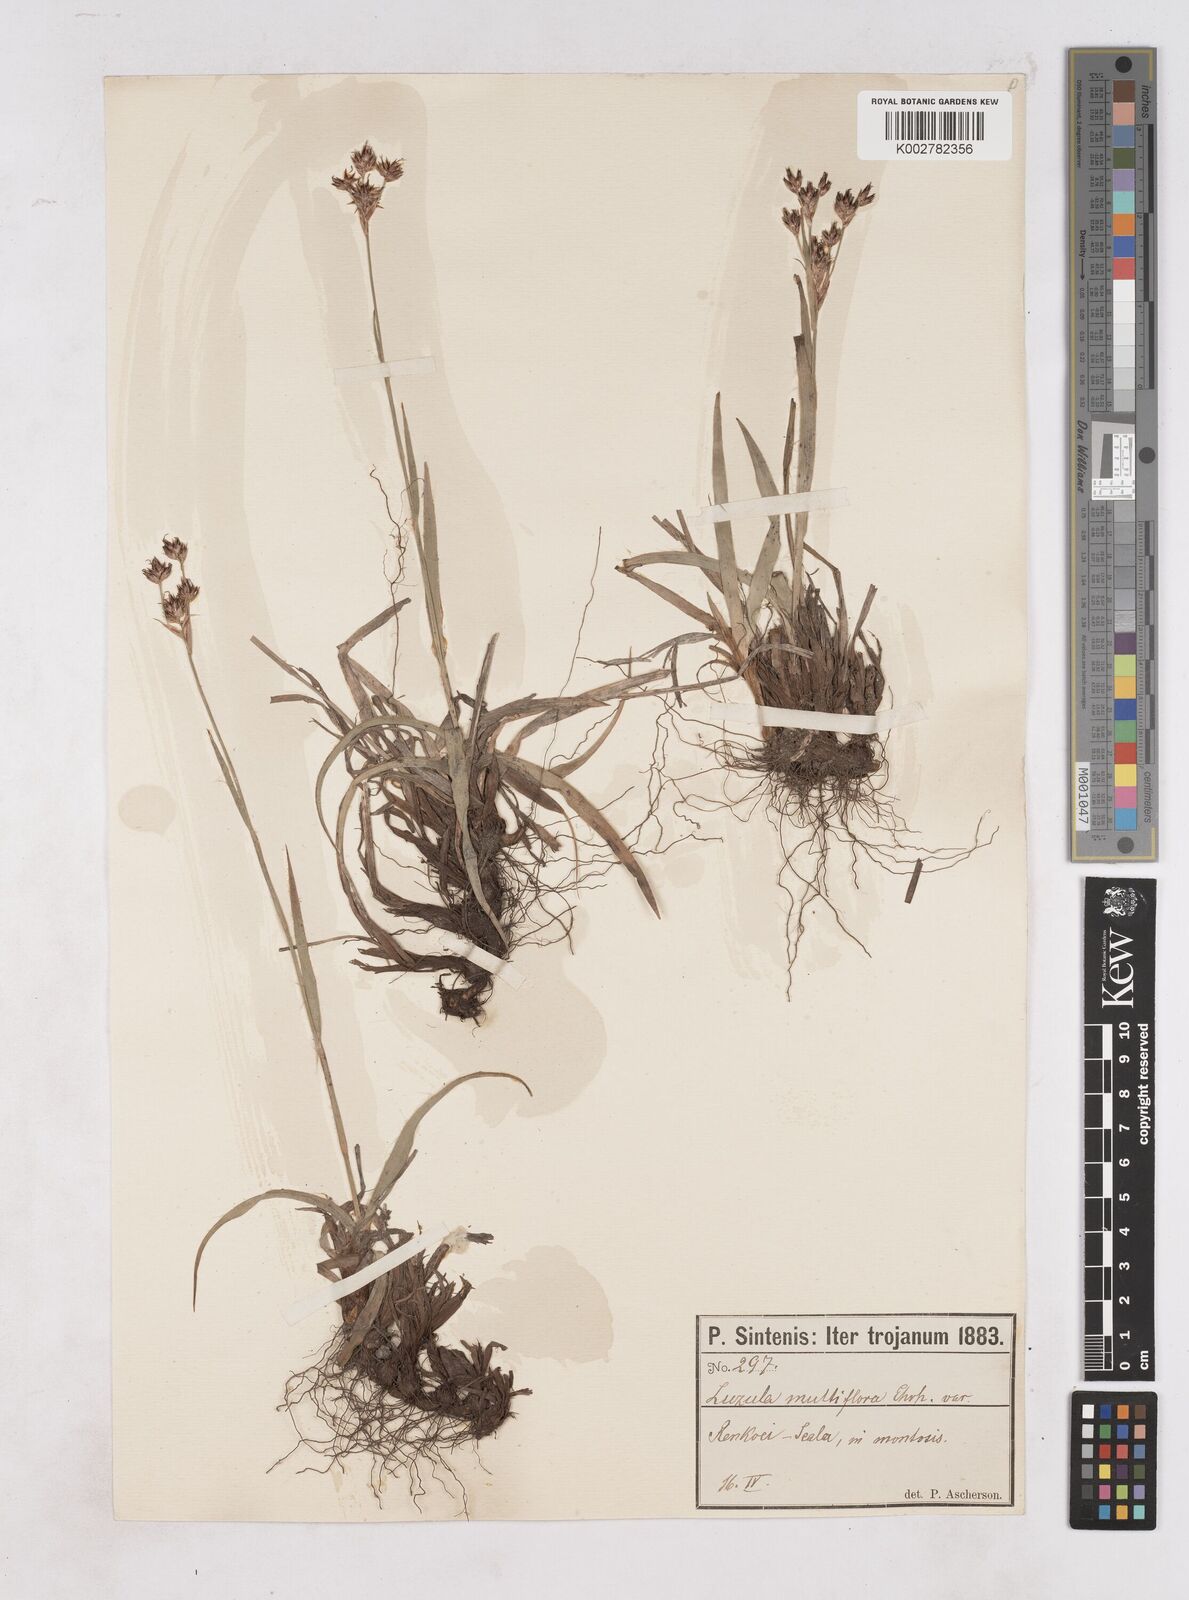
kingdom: Plantae
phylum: Tracheophyta
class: Liliopsida
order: Poales
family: Juncaceae
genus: Luzula
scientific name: Luzula nodulosa
